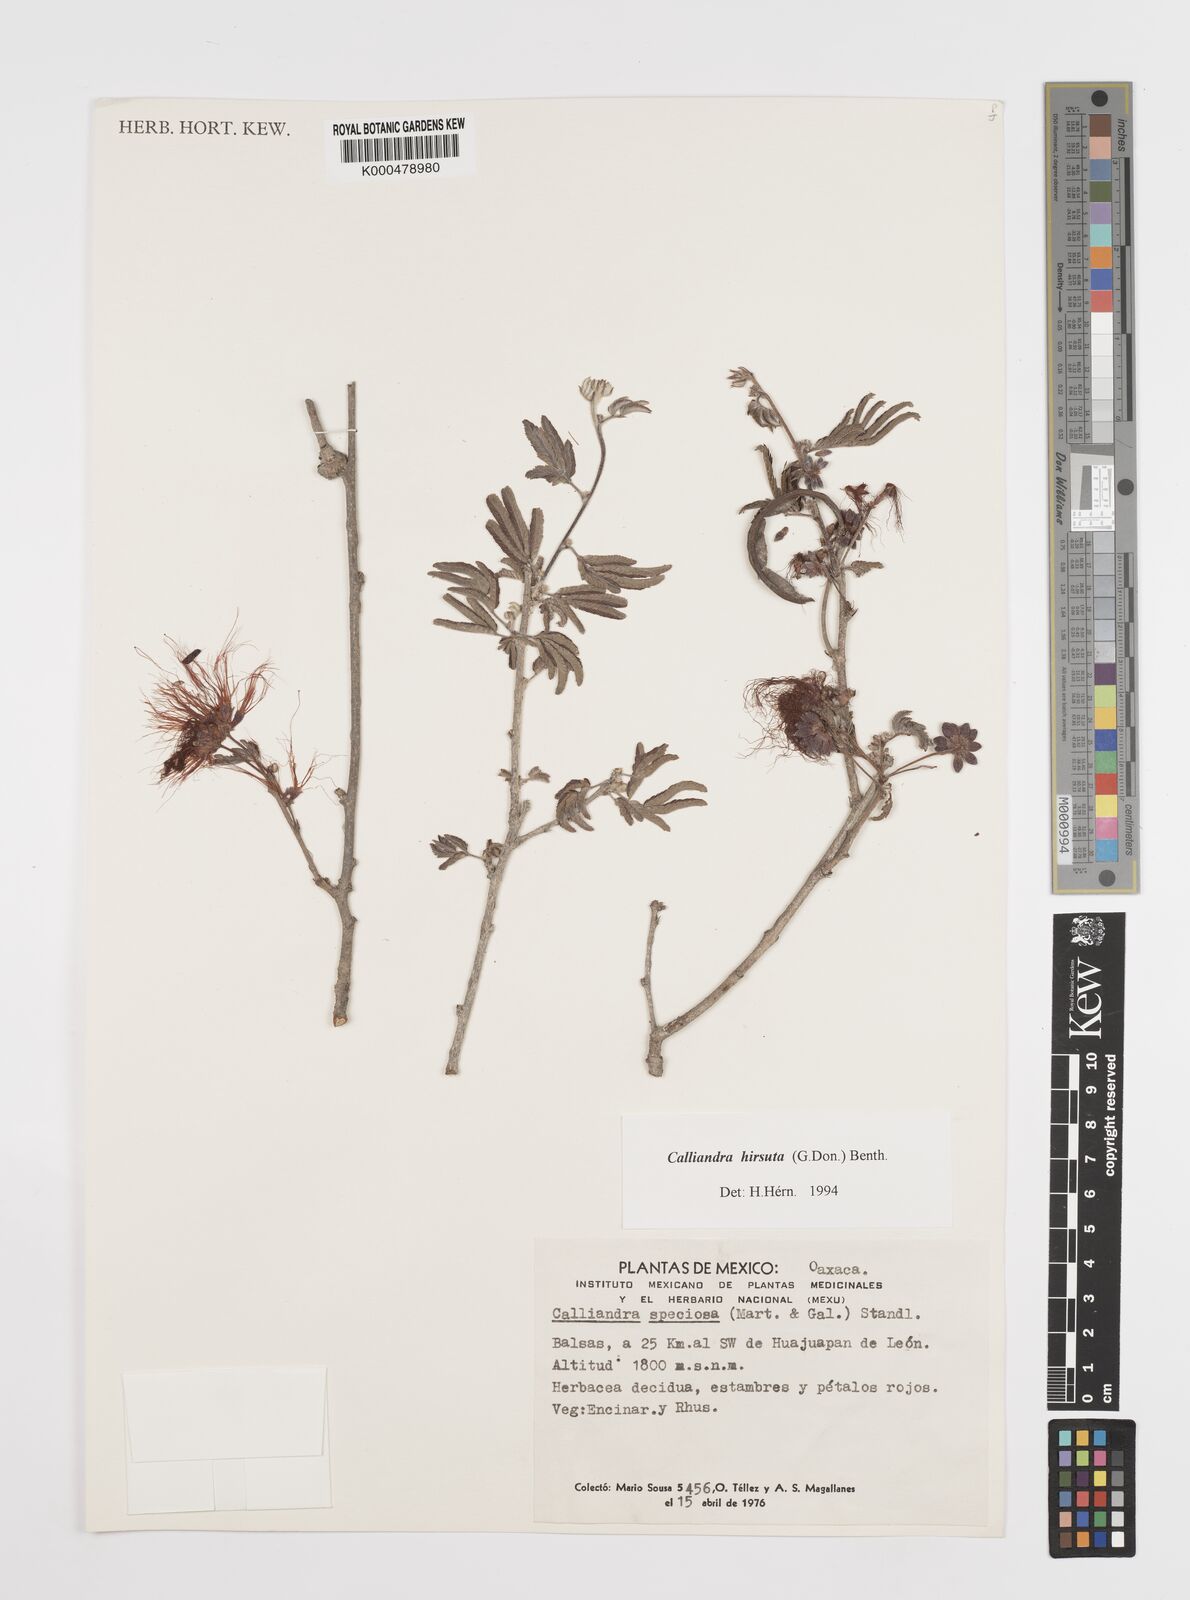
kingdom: Plantae
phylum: Tracheophyta
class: Magnoliopsida
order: Fabales
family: Fabaceae
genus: Calliandra
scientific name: Calliandra hirsuta
